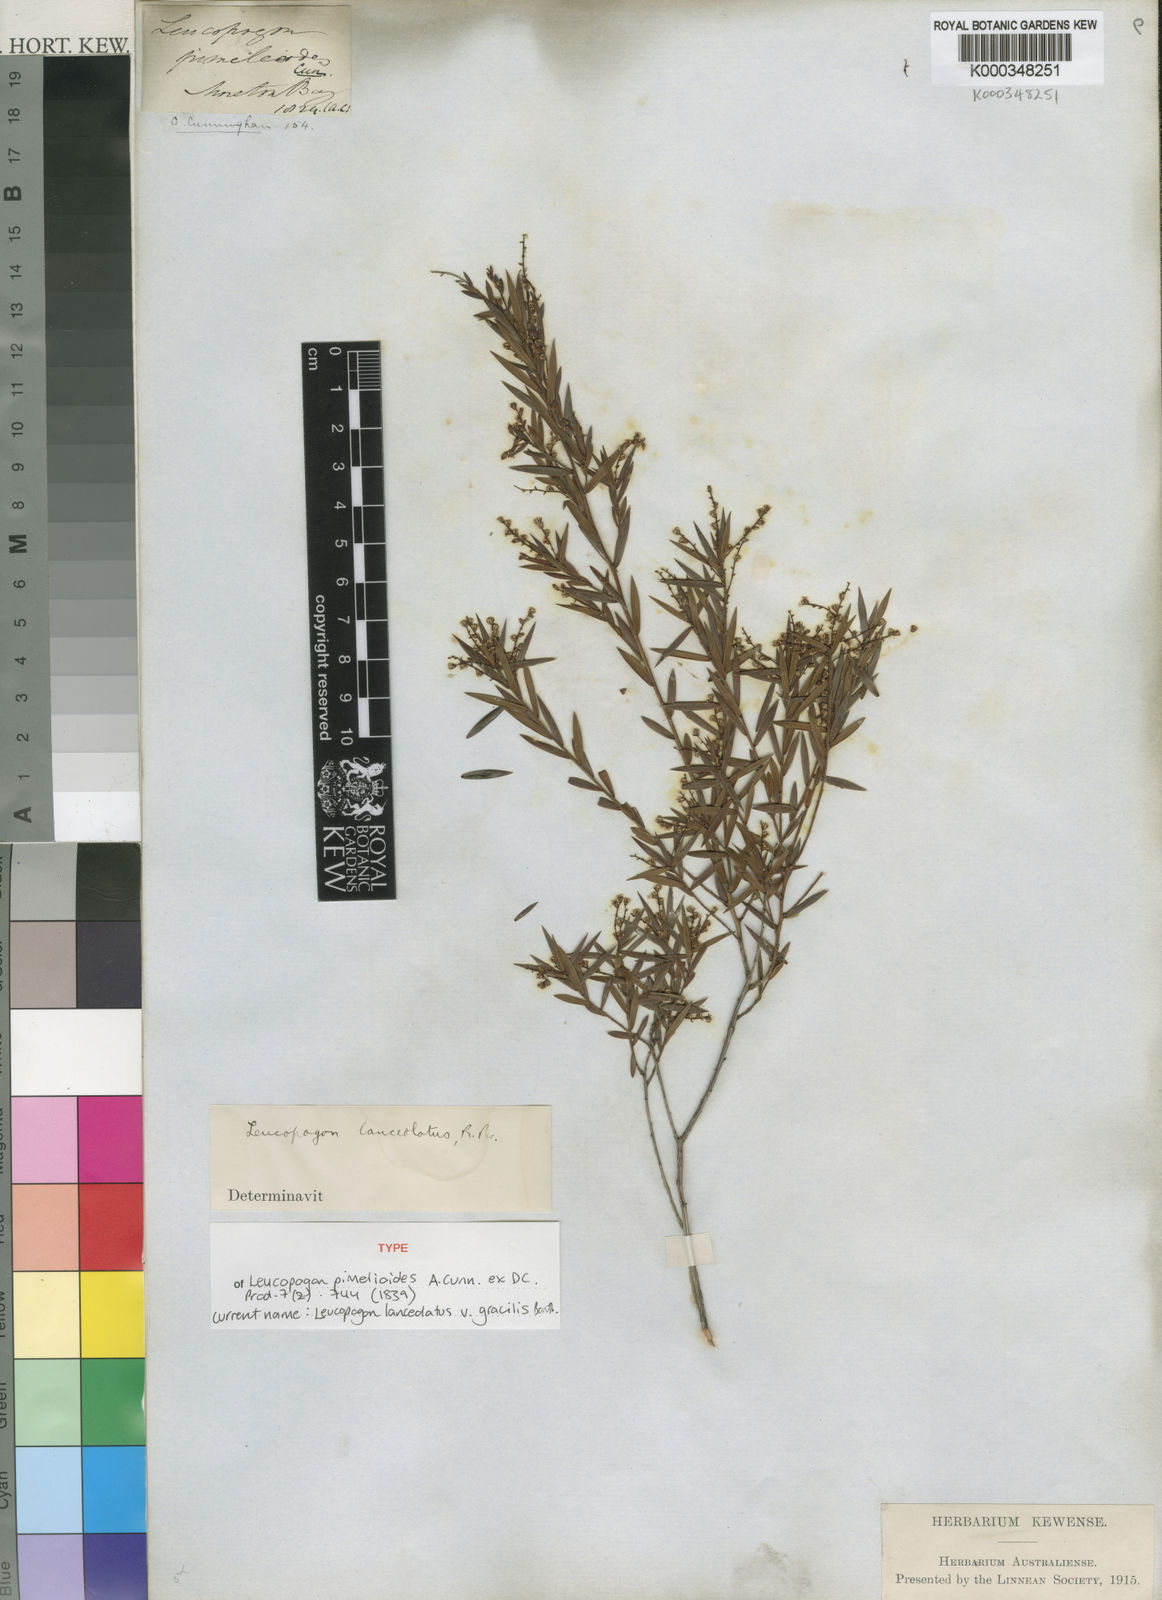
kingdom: Plantae
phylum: Tracheophyta
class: Magnoliopsida
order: Ericales
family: Ericaceae
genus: Leucopogon
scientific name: Leucopogon pimeleoides
